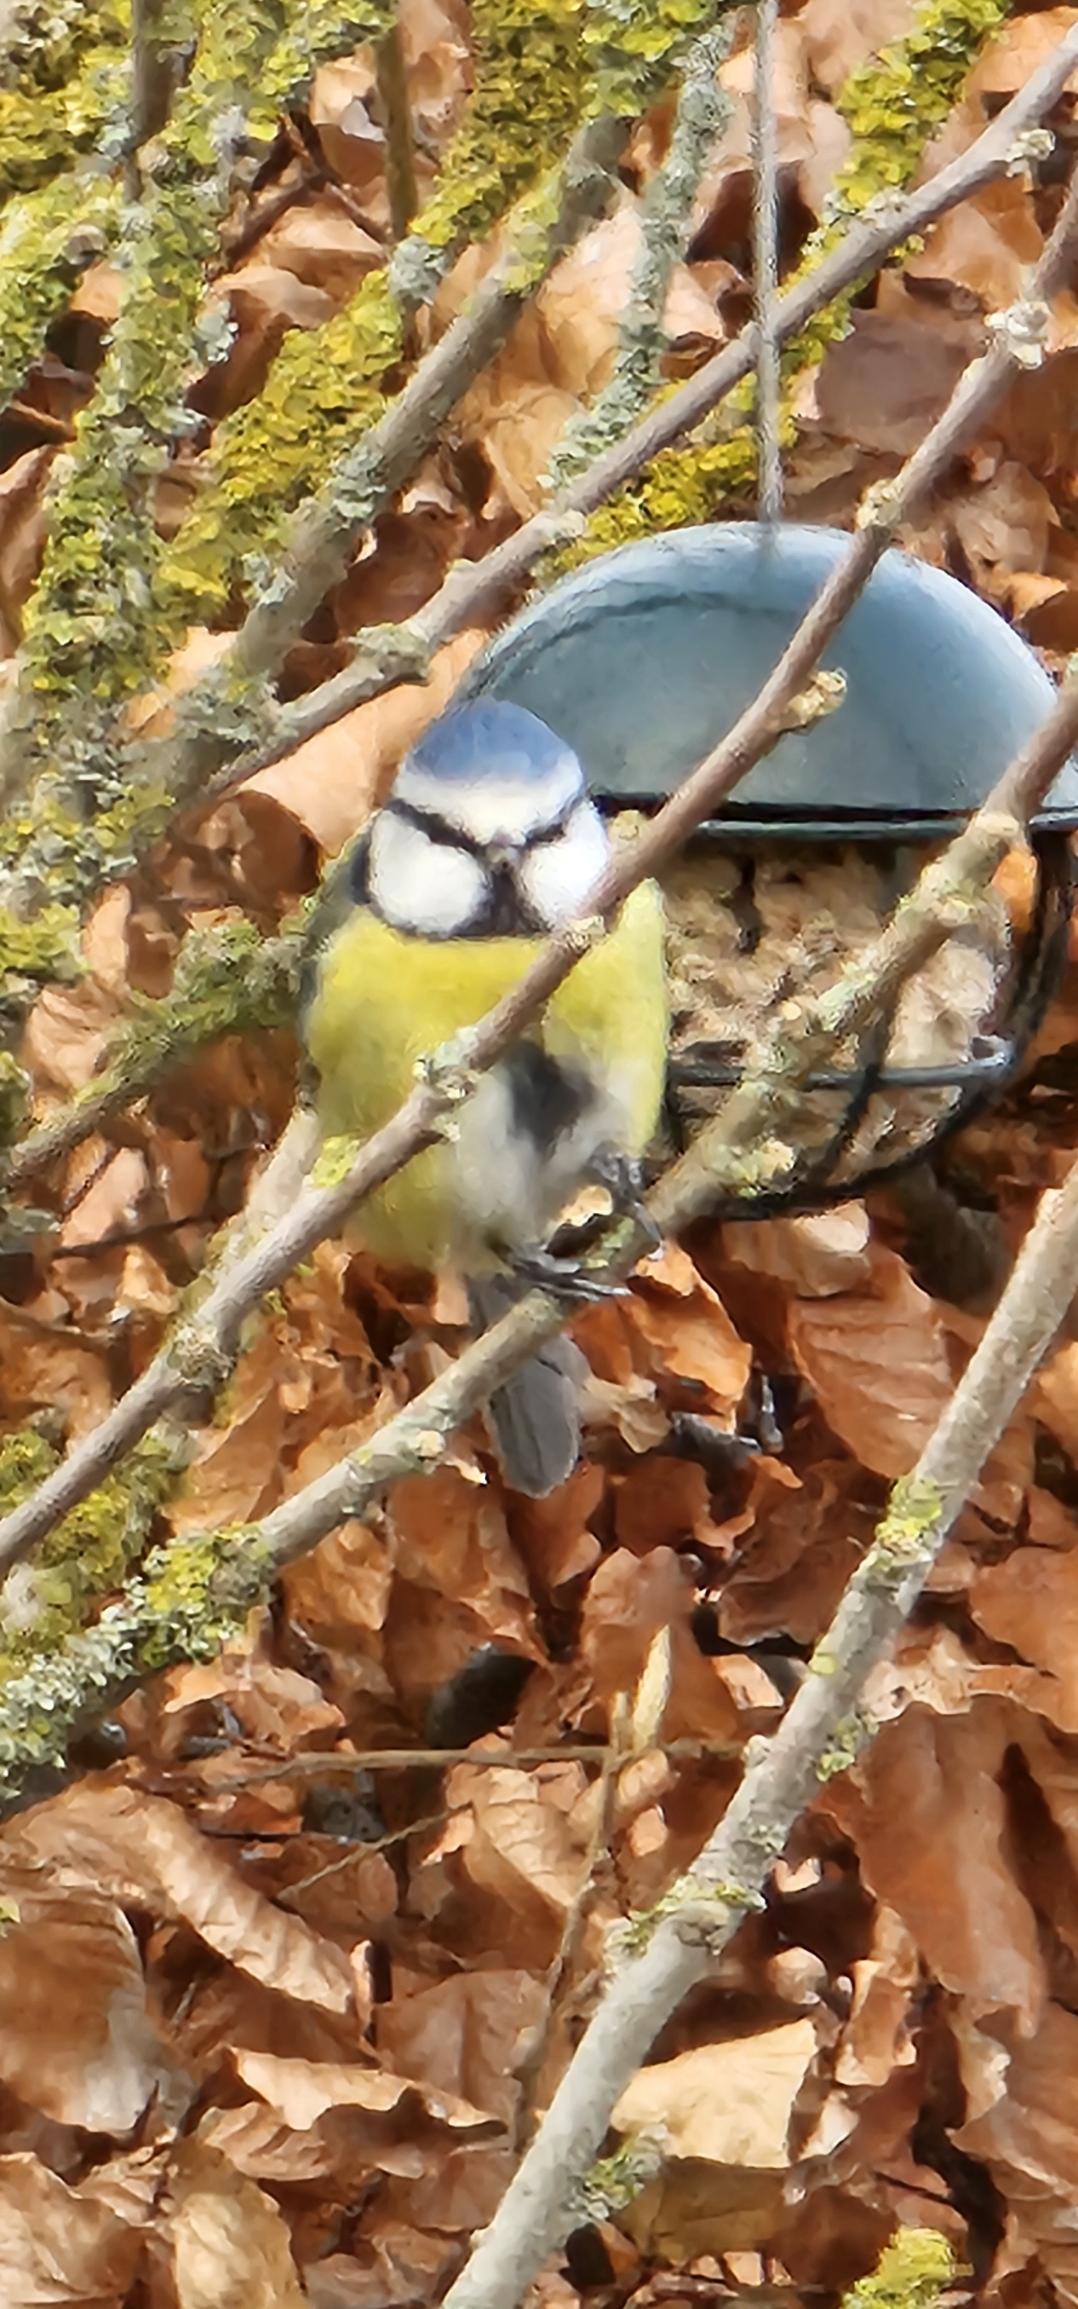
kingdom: Animalia
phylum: Chordata
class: Aves
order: Passeriformes
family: Paridae
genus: Cyanistes
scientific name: Cyanistes caeruleus
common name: Blåmejse
